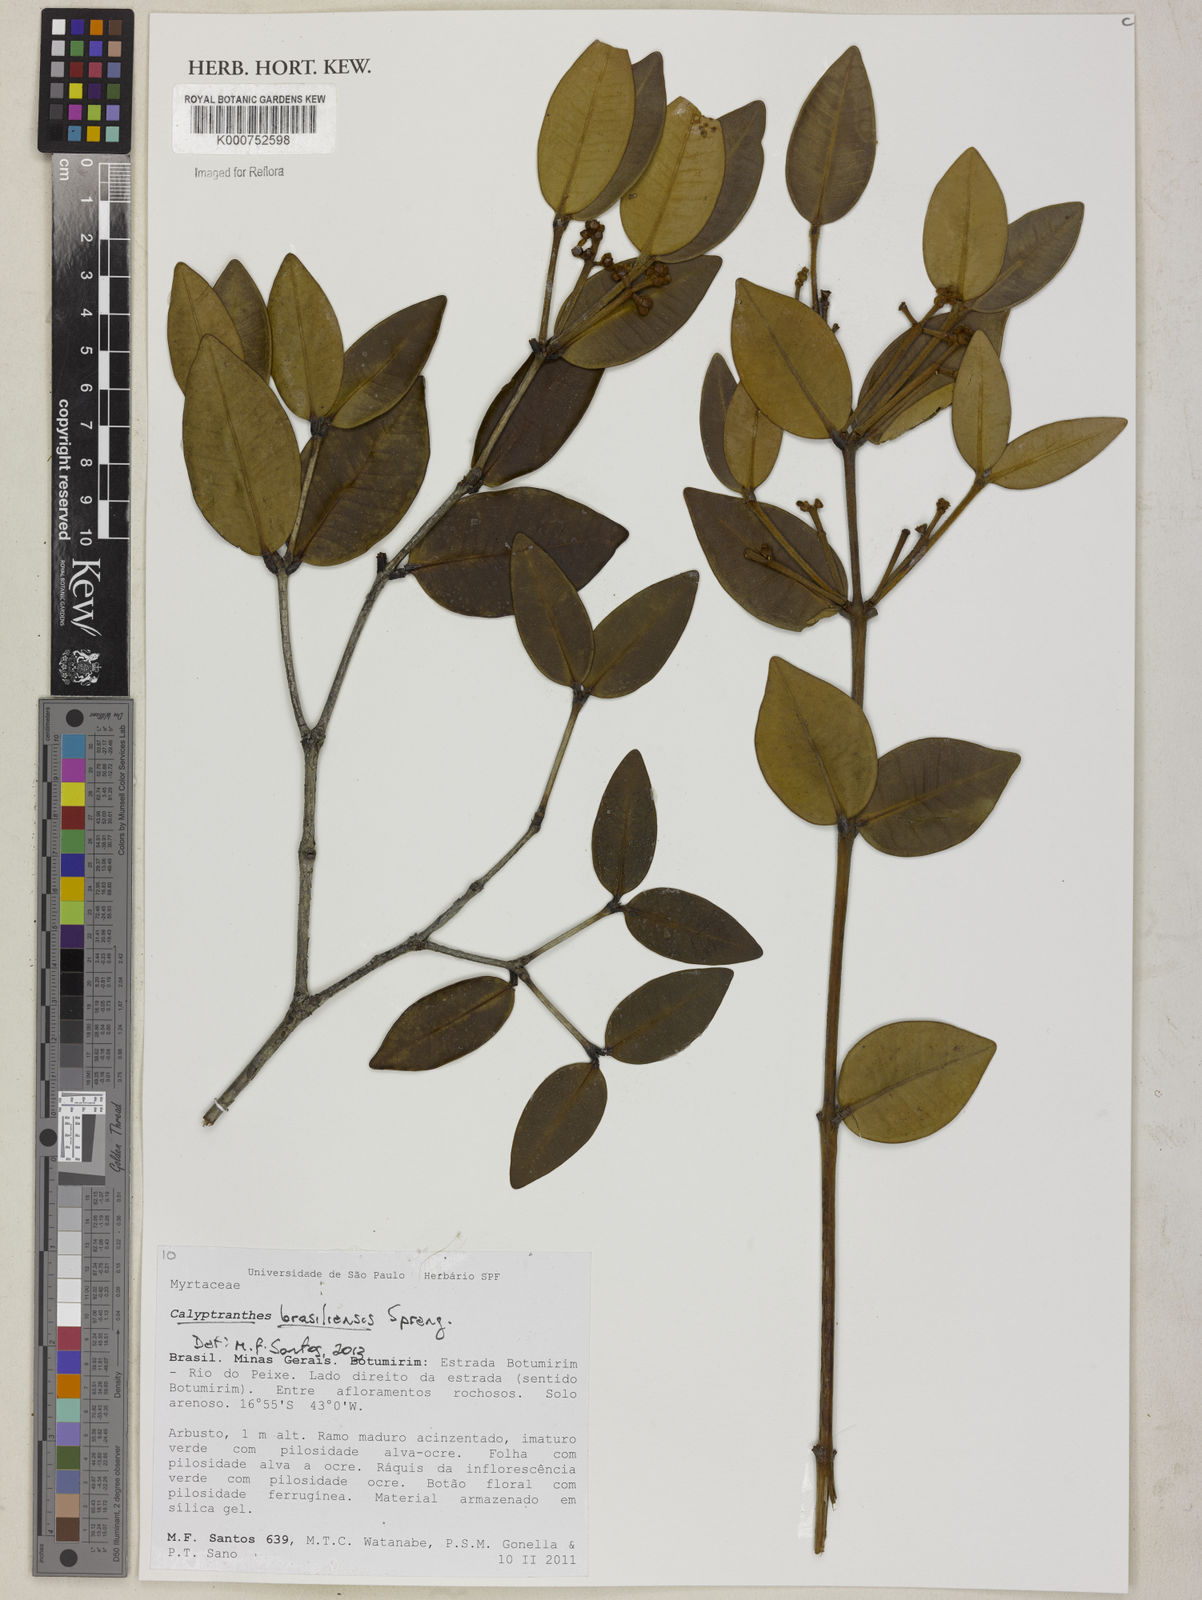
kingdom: Plantae
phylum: Tracheophyta
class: Magnoliopsida
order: Myrtales
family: Myrtaceae
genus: Myrcia
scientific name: Myrcia neobrasiliensis
